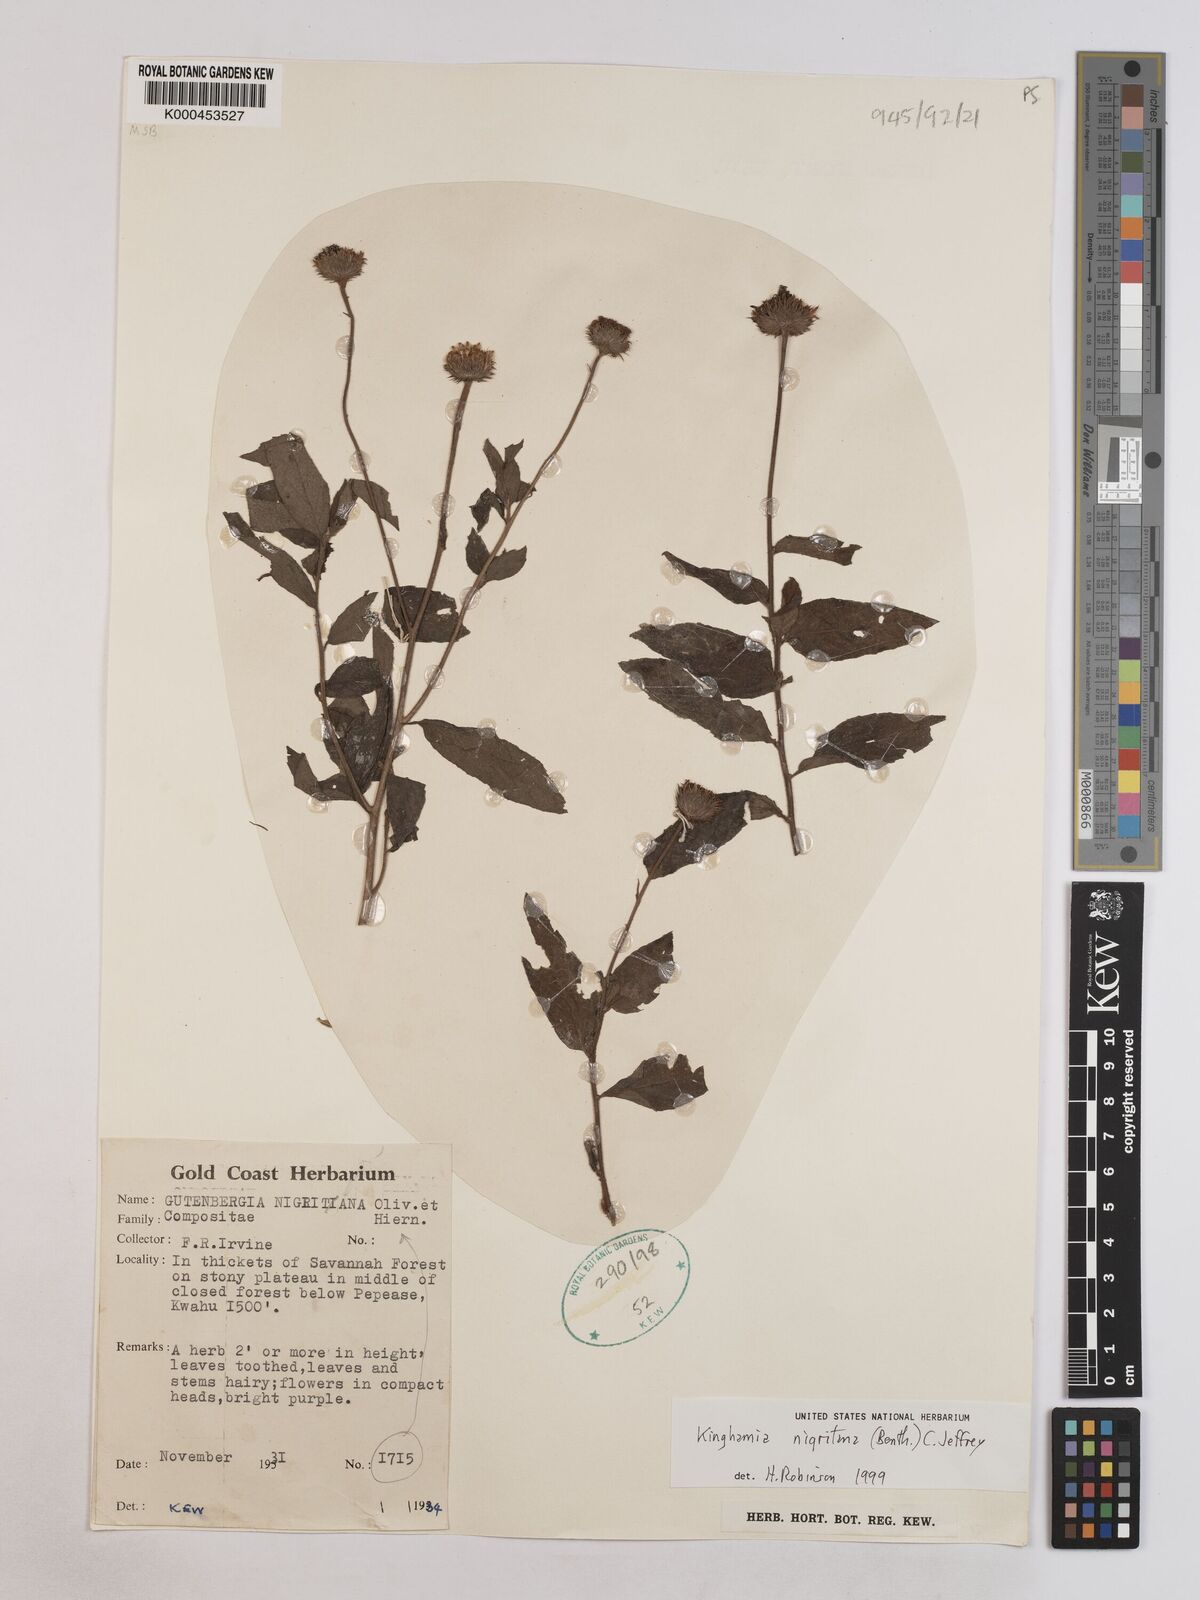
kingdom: Plantae
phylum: Tracheophyta
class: Magnoliopsida
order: Asterales
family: Asteraceae
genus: Kinghamia
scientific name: Kinghamia nigritana
